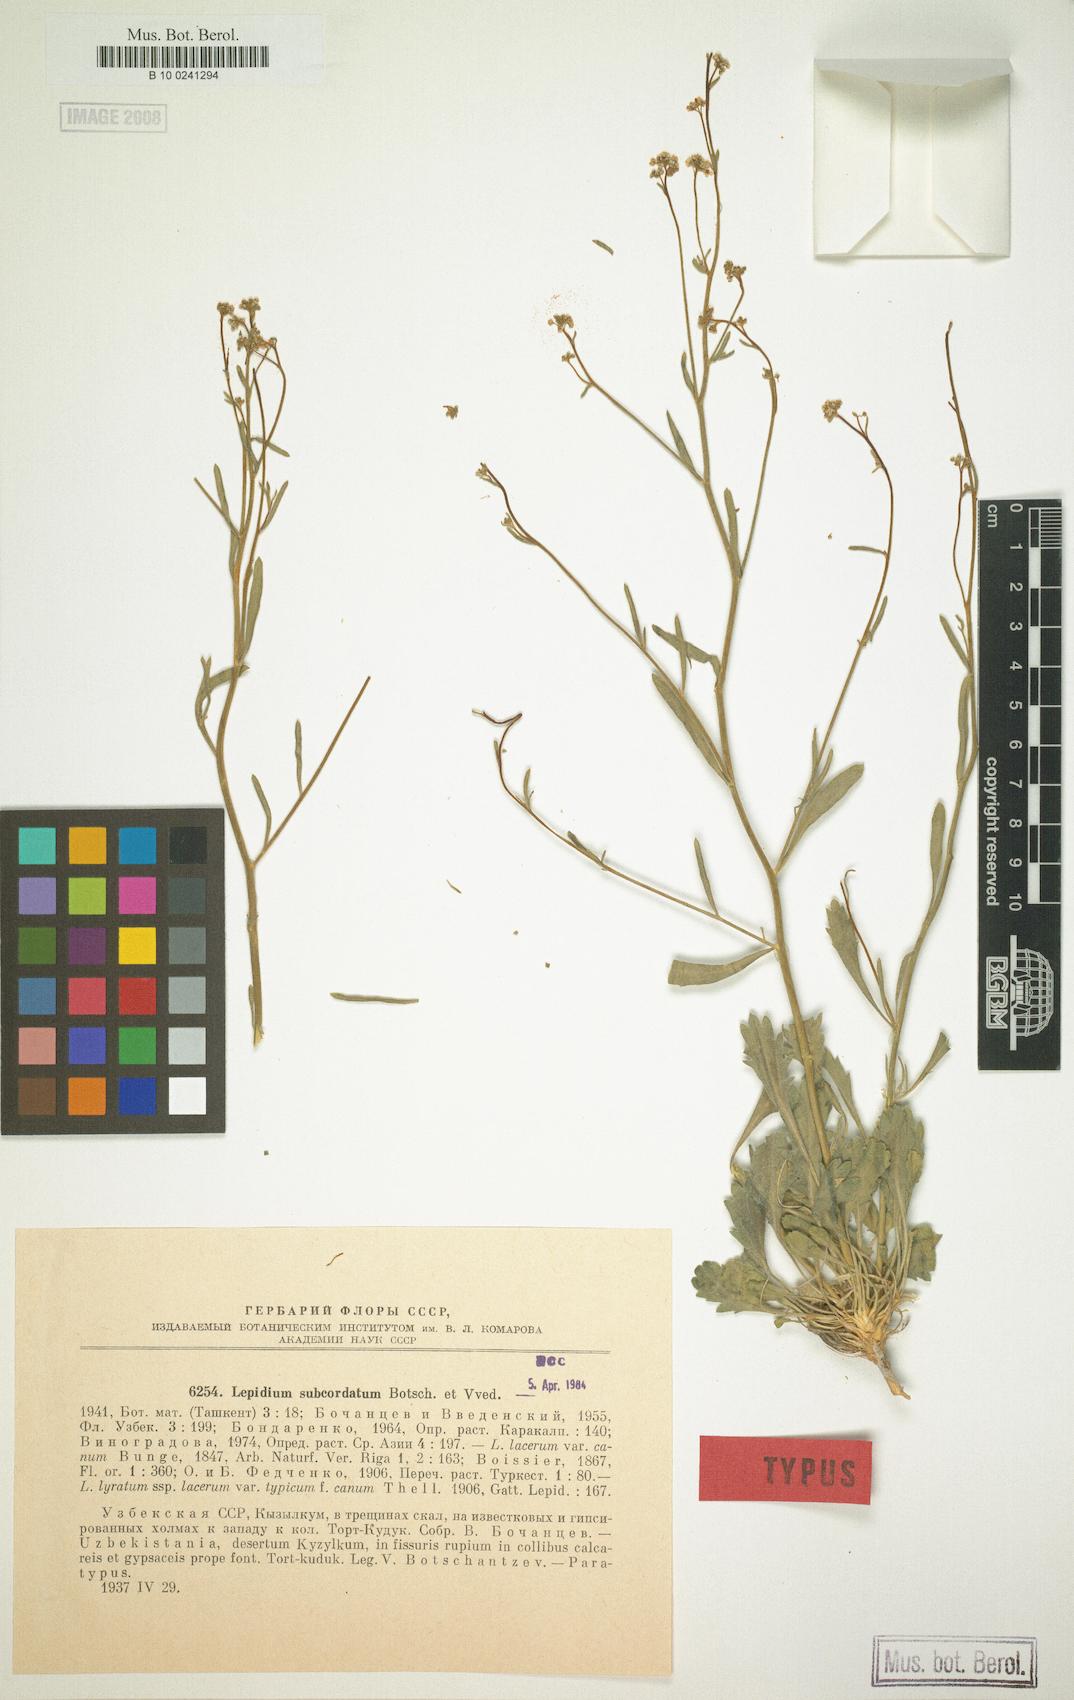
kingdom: Plantae
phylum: Tracheophyta
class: Magnoliopsida
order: Brassicales
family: Brassicaceae
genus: Lepidium
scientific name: Lepidium subcordatum
